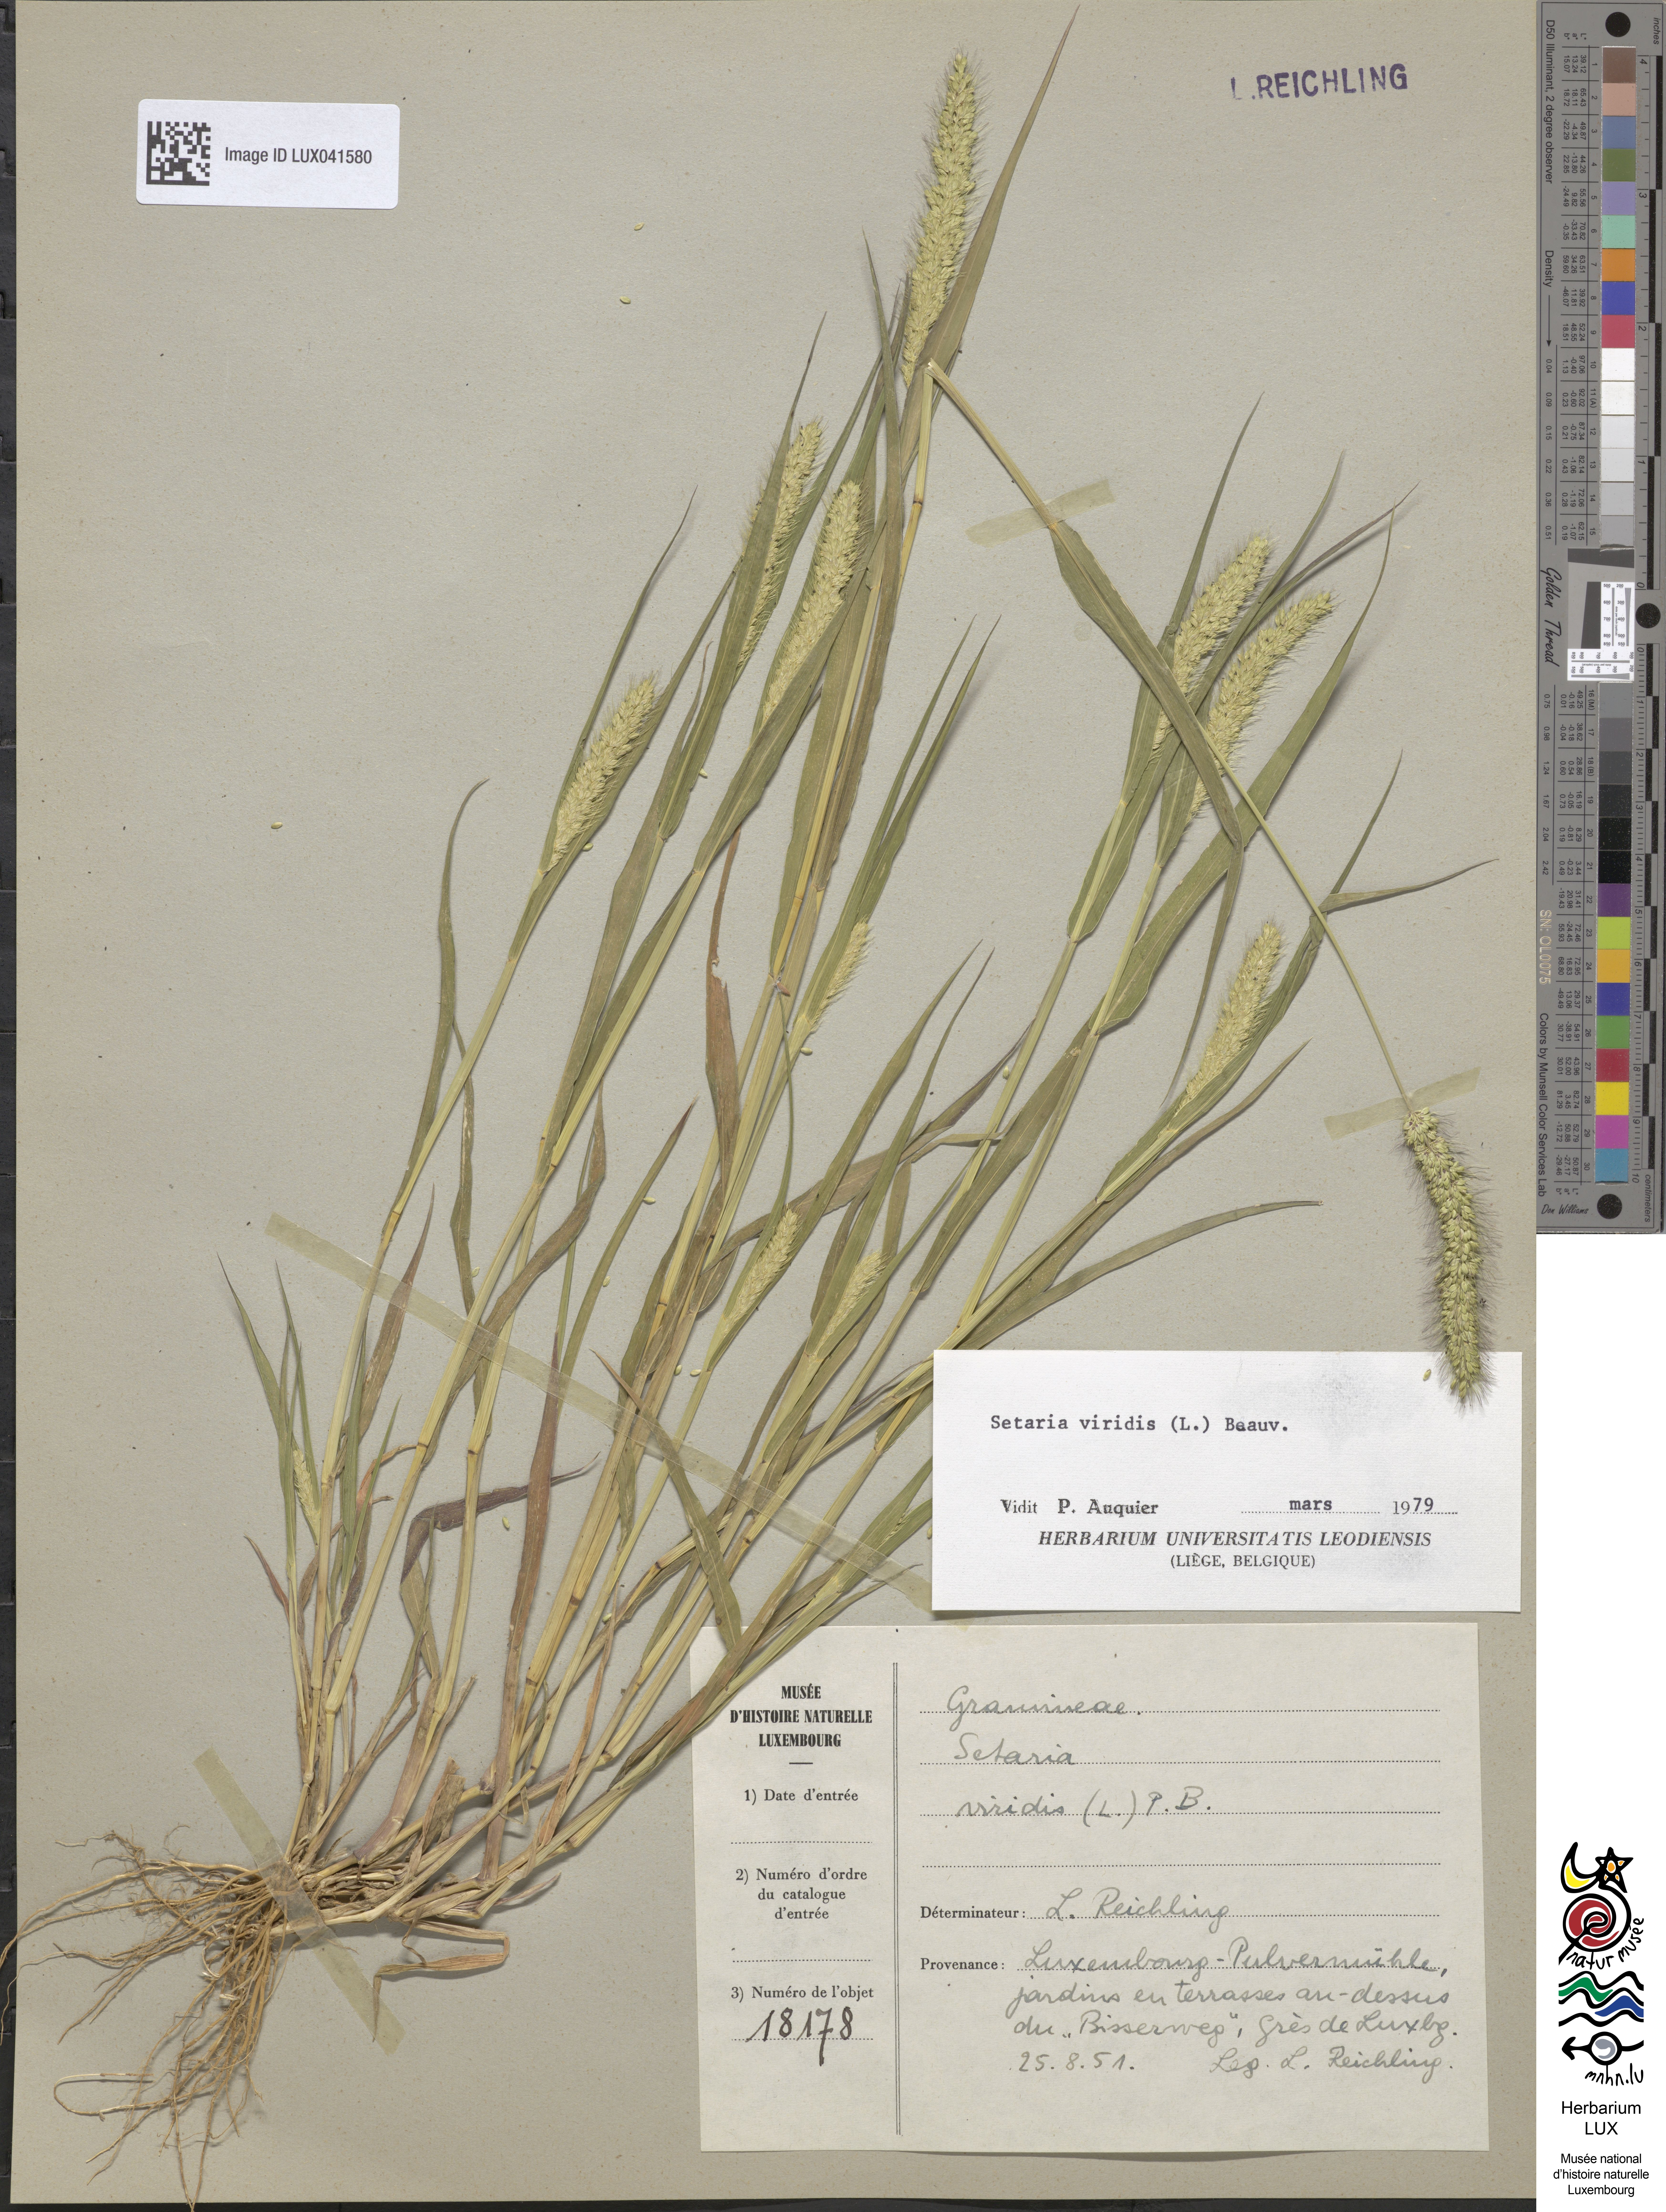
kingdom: Plantae
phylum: Tracheophyta
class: Liliopsida
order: Poales
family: Poaceae
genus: Setaria
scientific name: Setaria viridis
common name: Green bristlegrass
